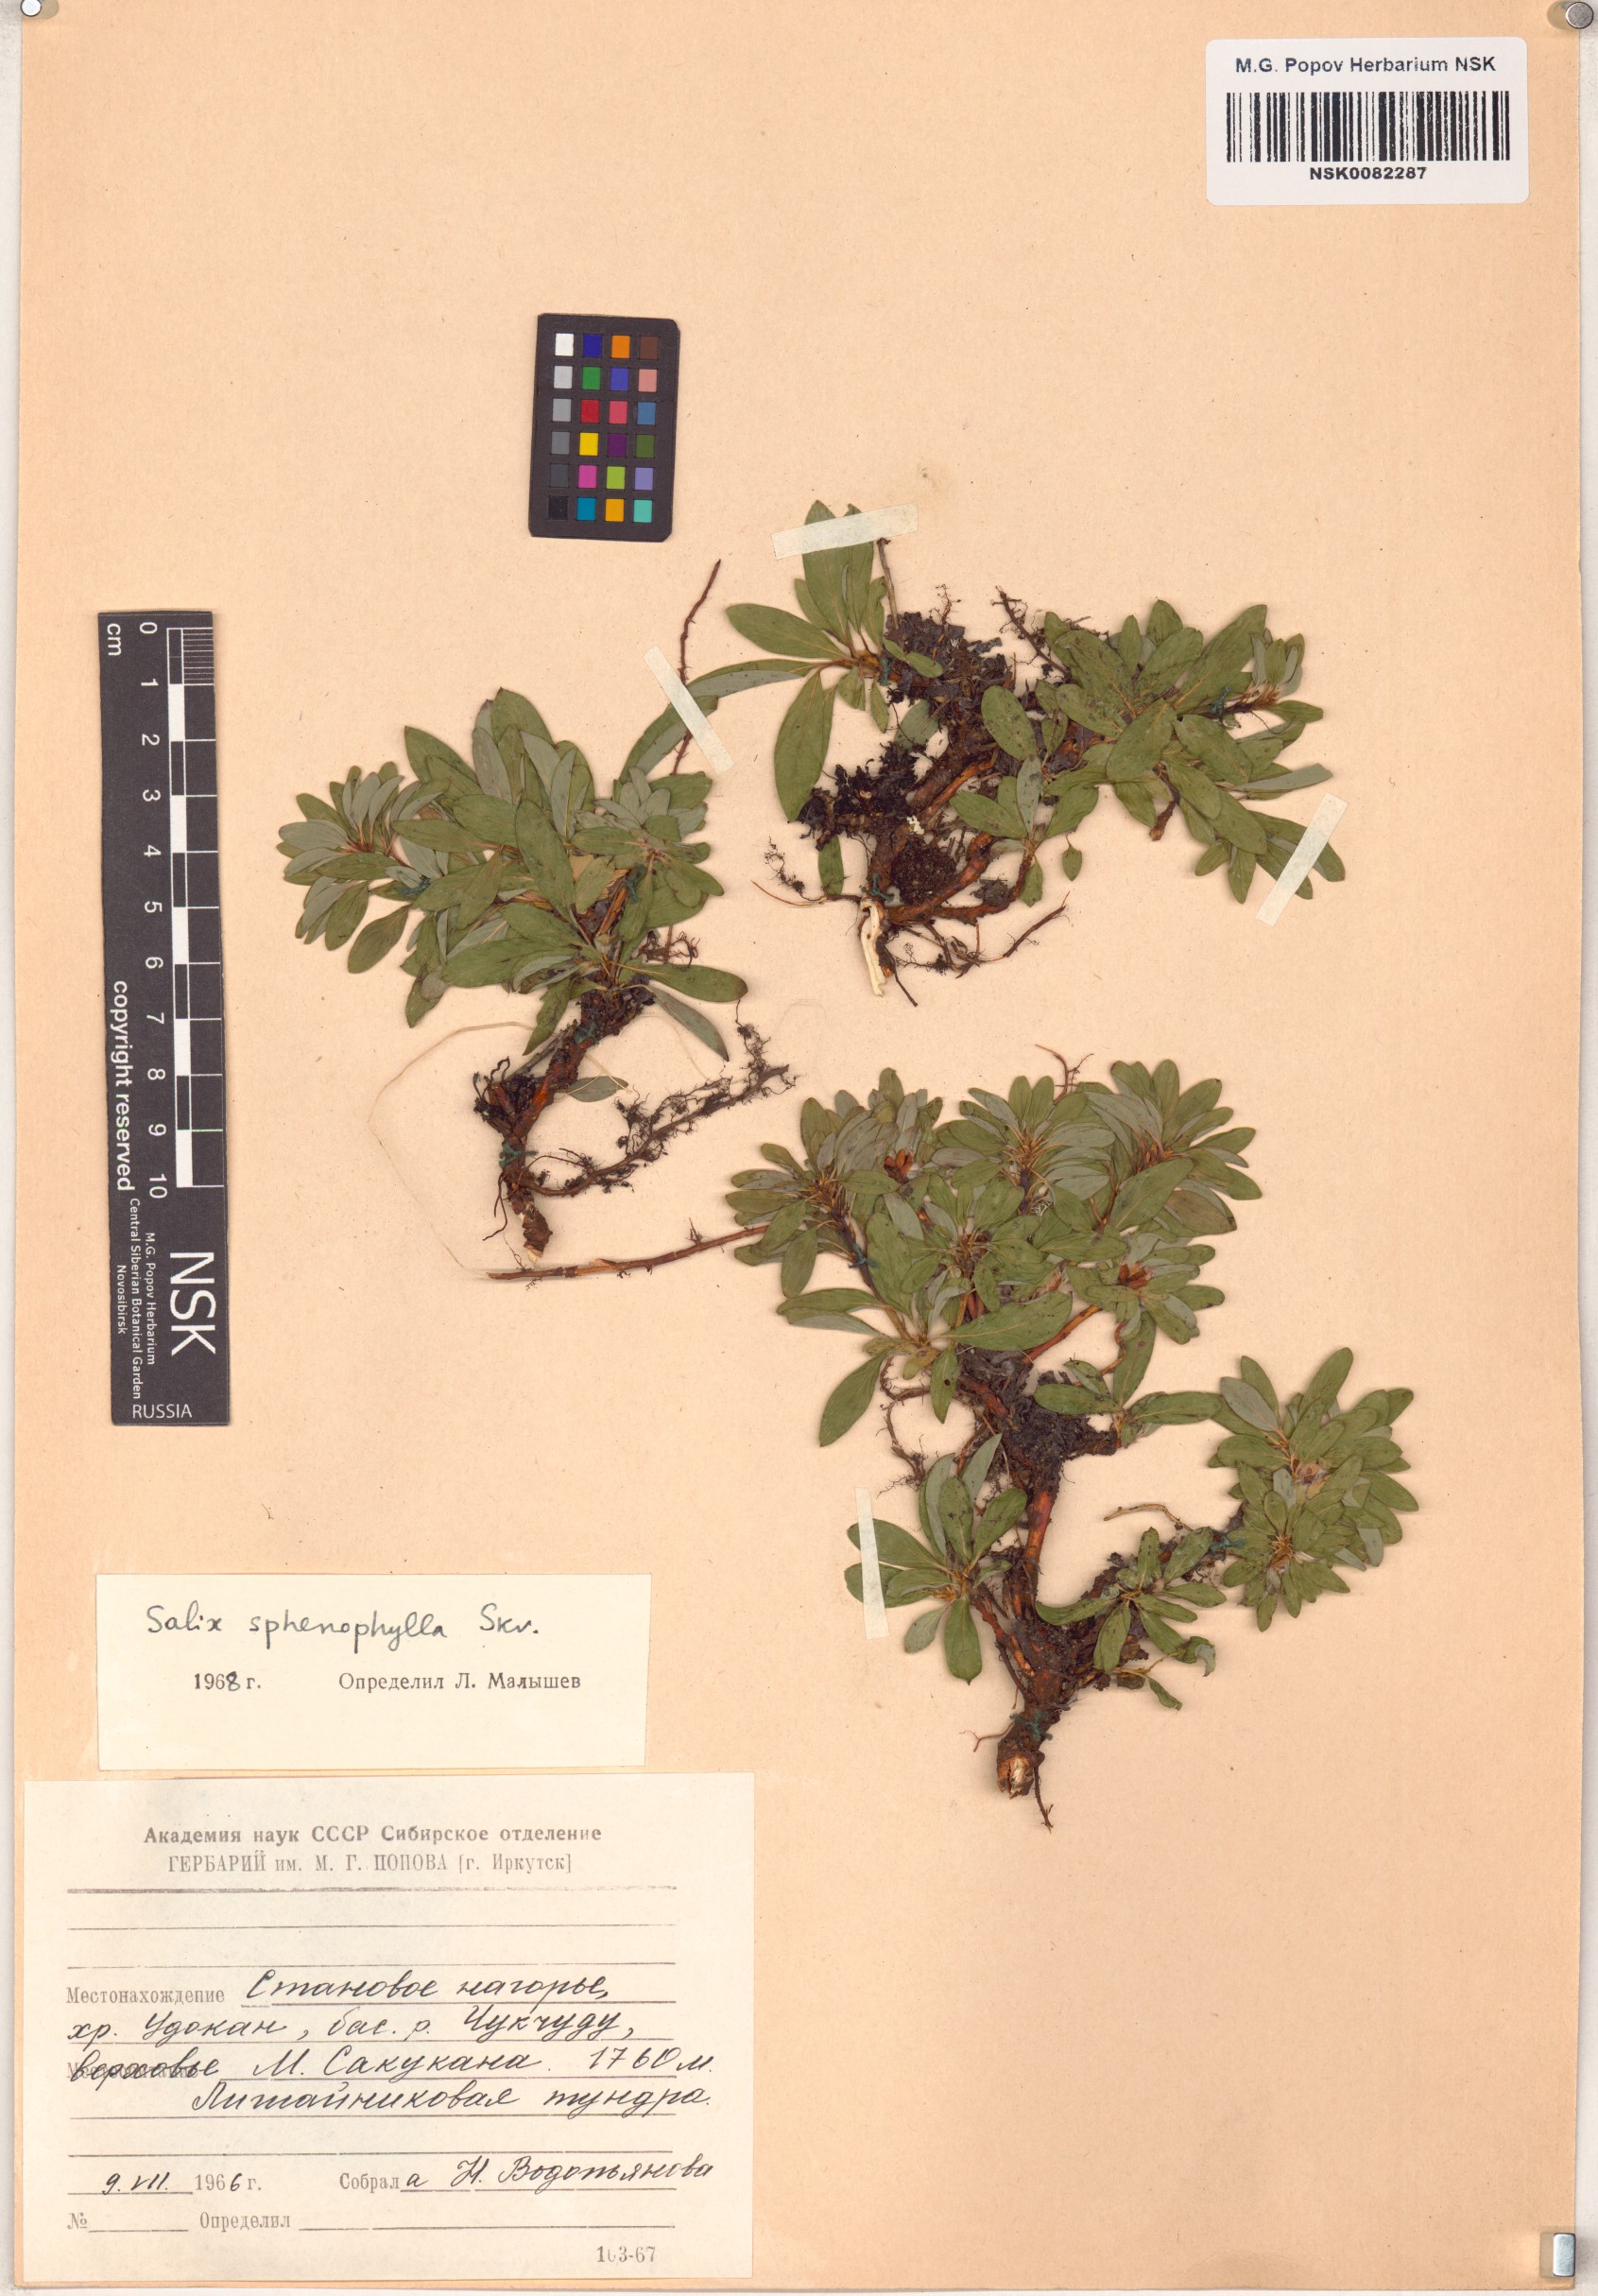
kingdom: Plantae
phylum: Tracheophyta
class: Magnoliopsida
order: Malpighiales
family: Salicaceae
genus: Salix
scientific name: Salix sphenophylla
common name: Wedge-leaved willow
